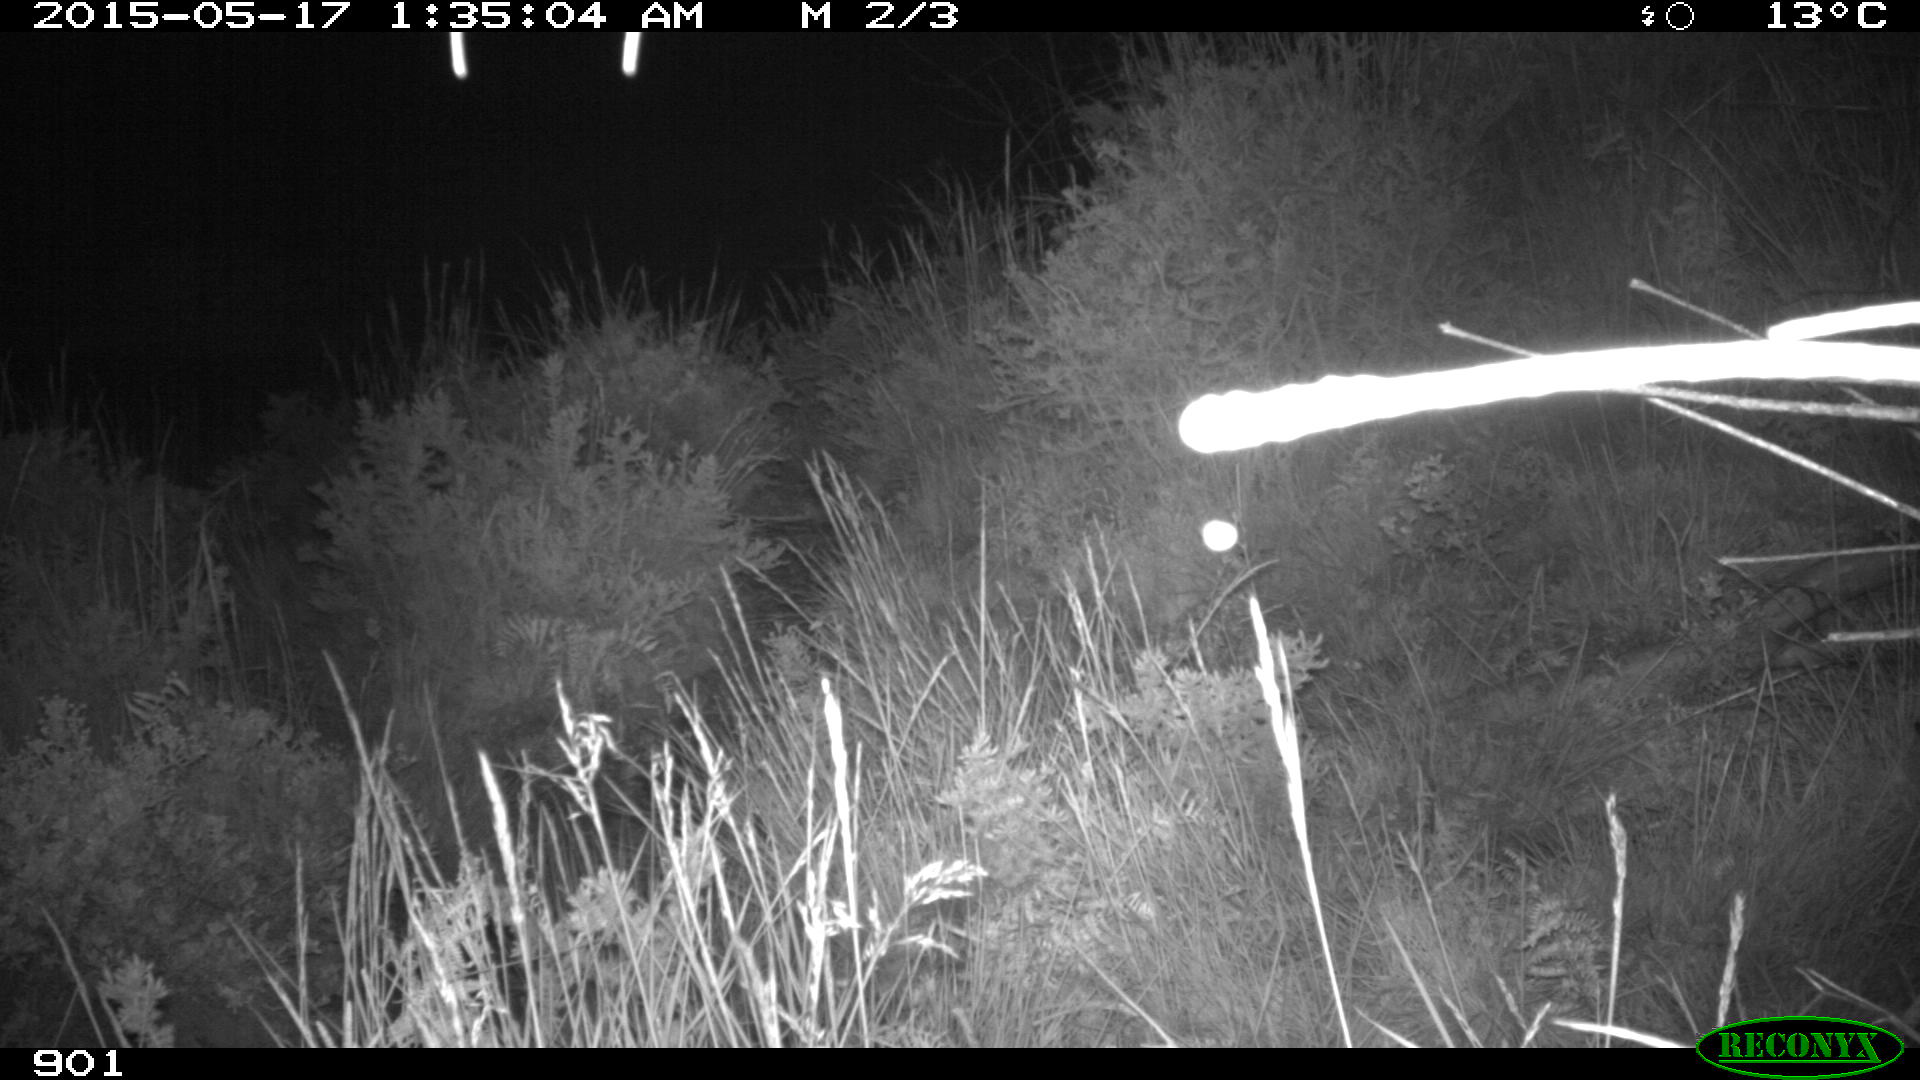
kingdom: Animalia
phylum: Chordata
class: Mammalia
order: Perissodactyla
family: Equidae
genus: Equus
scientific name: Equus caballus
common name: Horse
